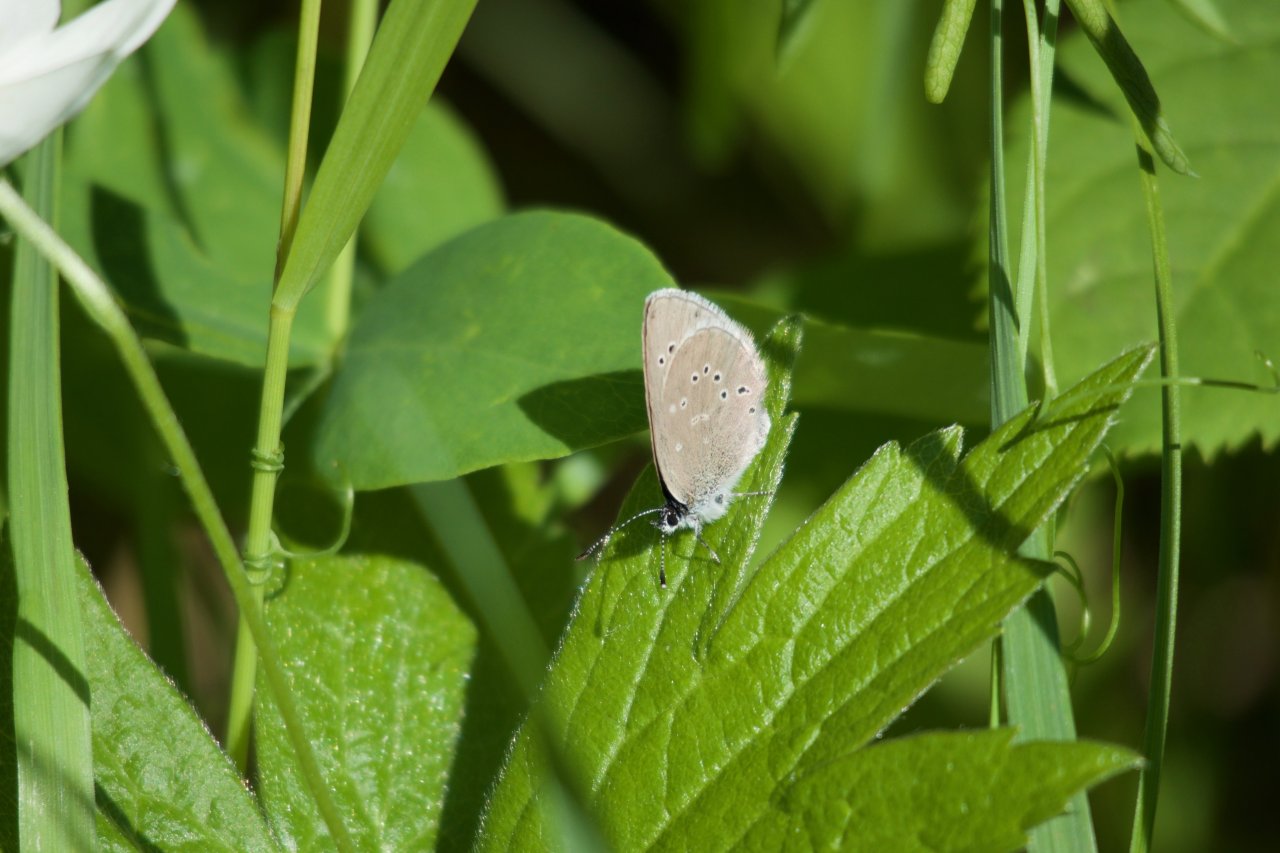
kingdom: Animalia
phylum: Arthropoda
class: Insecta
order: Lepidoptera
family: Lycaenidae
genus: Glaucopsyche
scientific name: Glaucopsyche lygdamus
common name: Silvery Blue
